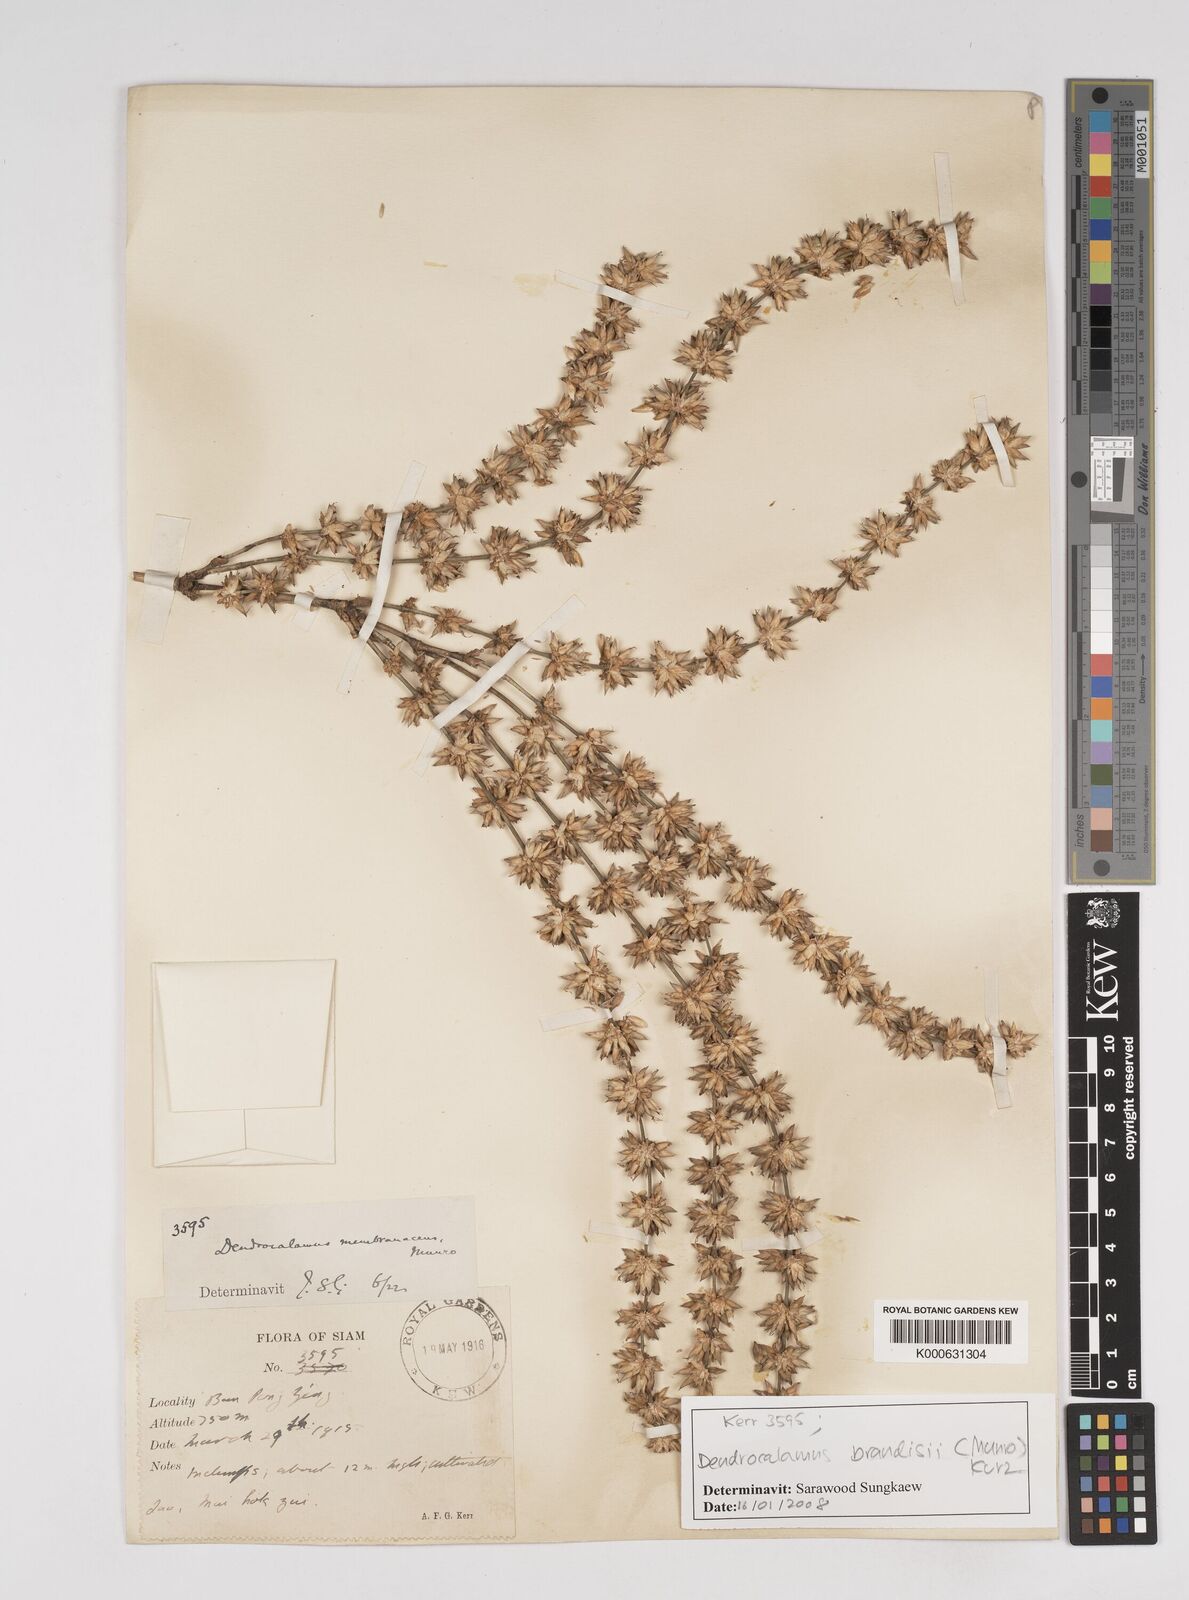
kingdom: Plantae
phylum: Tracheophyta
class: Liliopsida
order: Poales
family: Poaceae
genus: Dendrocalamus
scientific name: Dendrocalamus brandisii
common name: Velvetleaf bamboo
